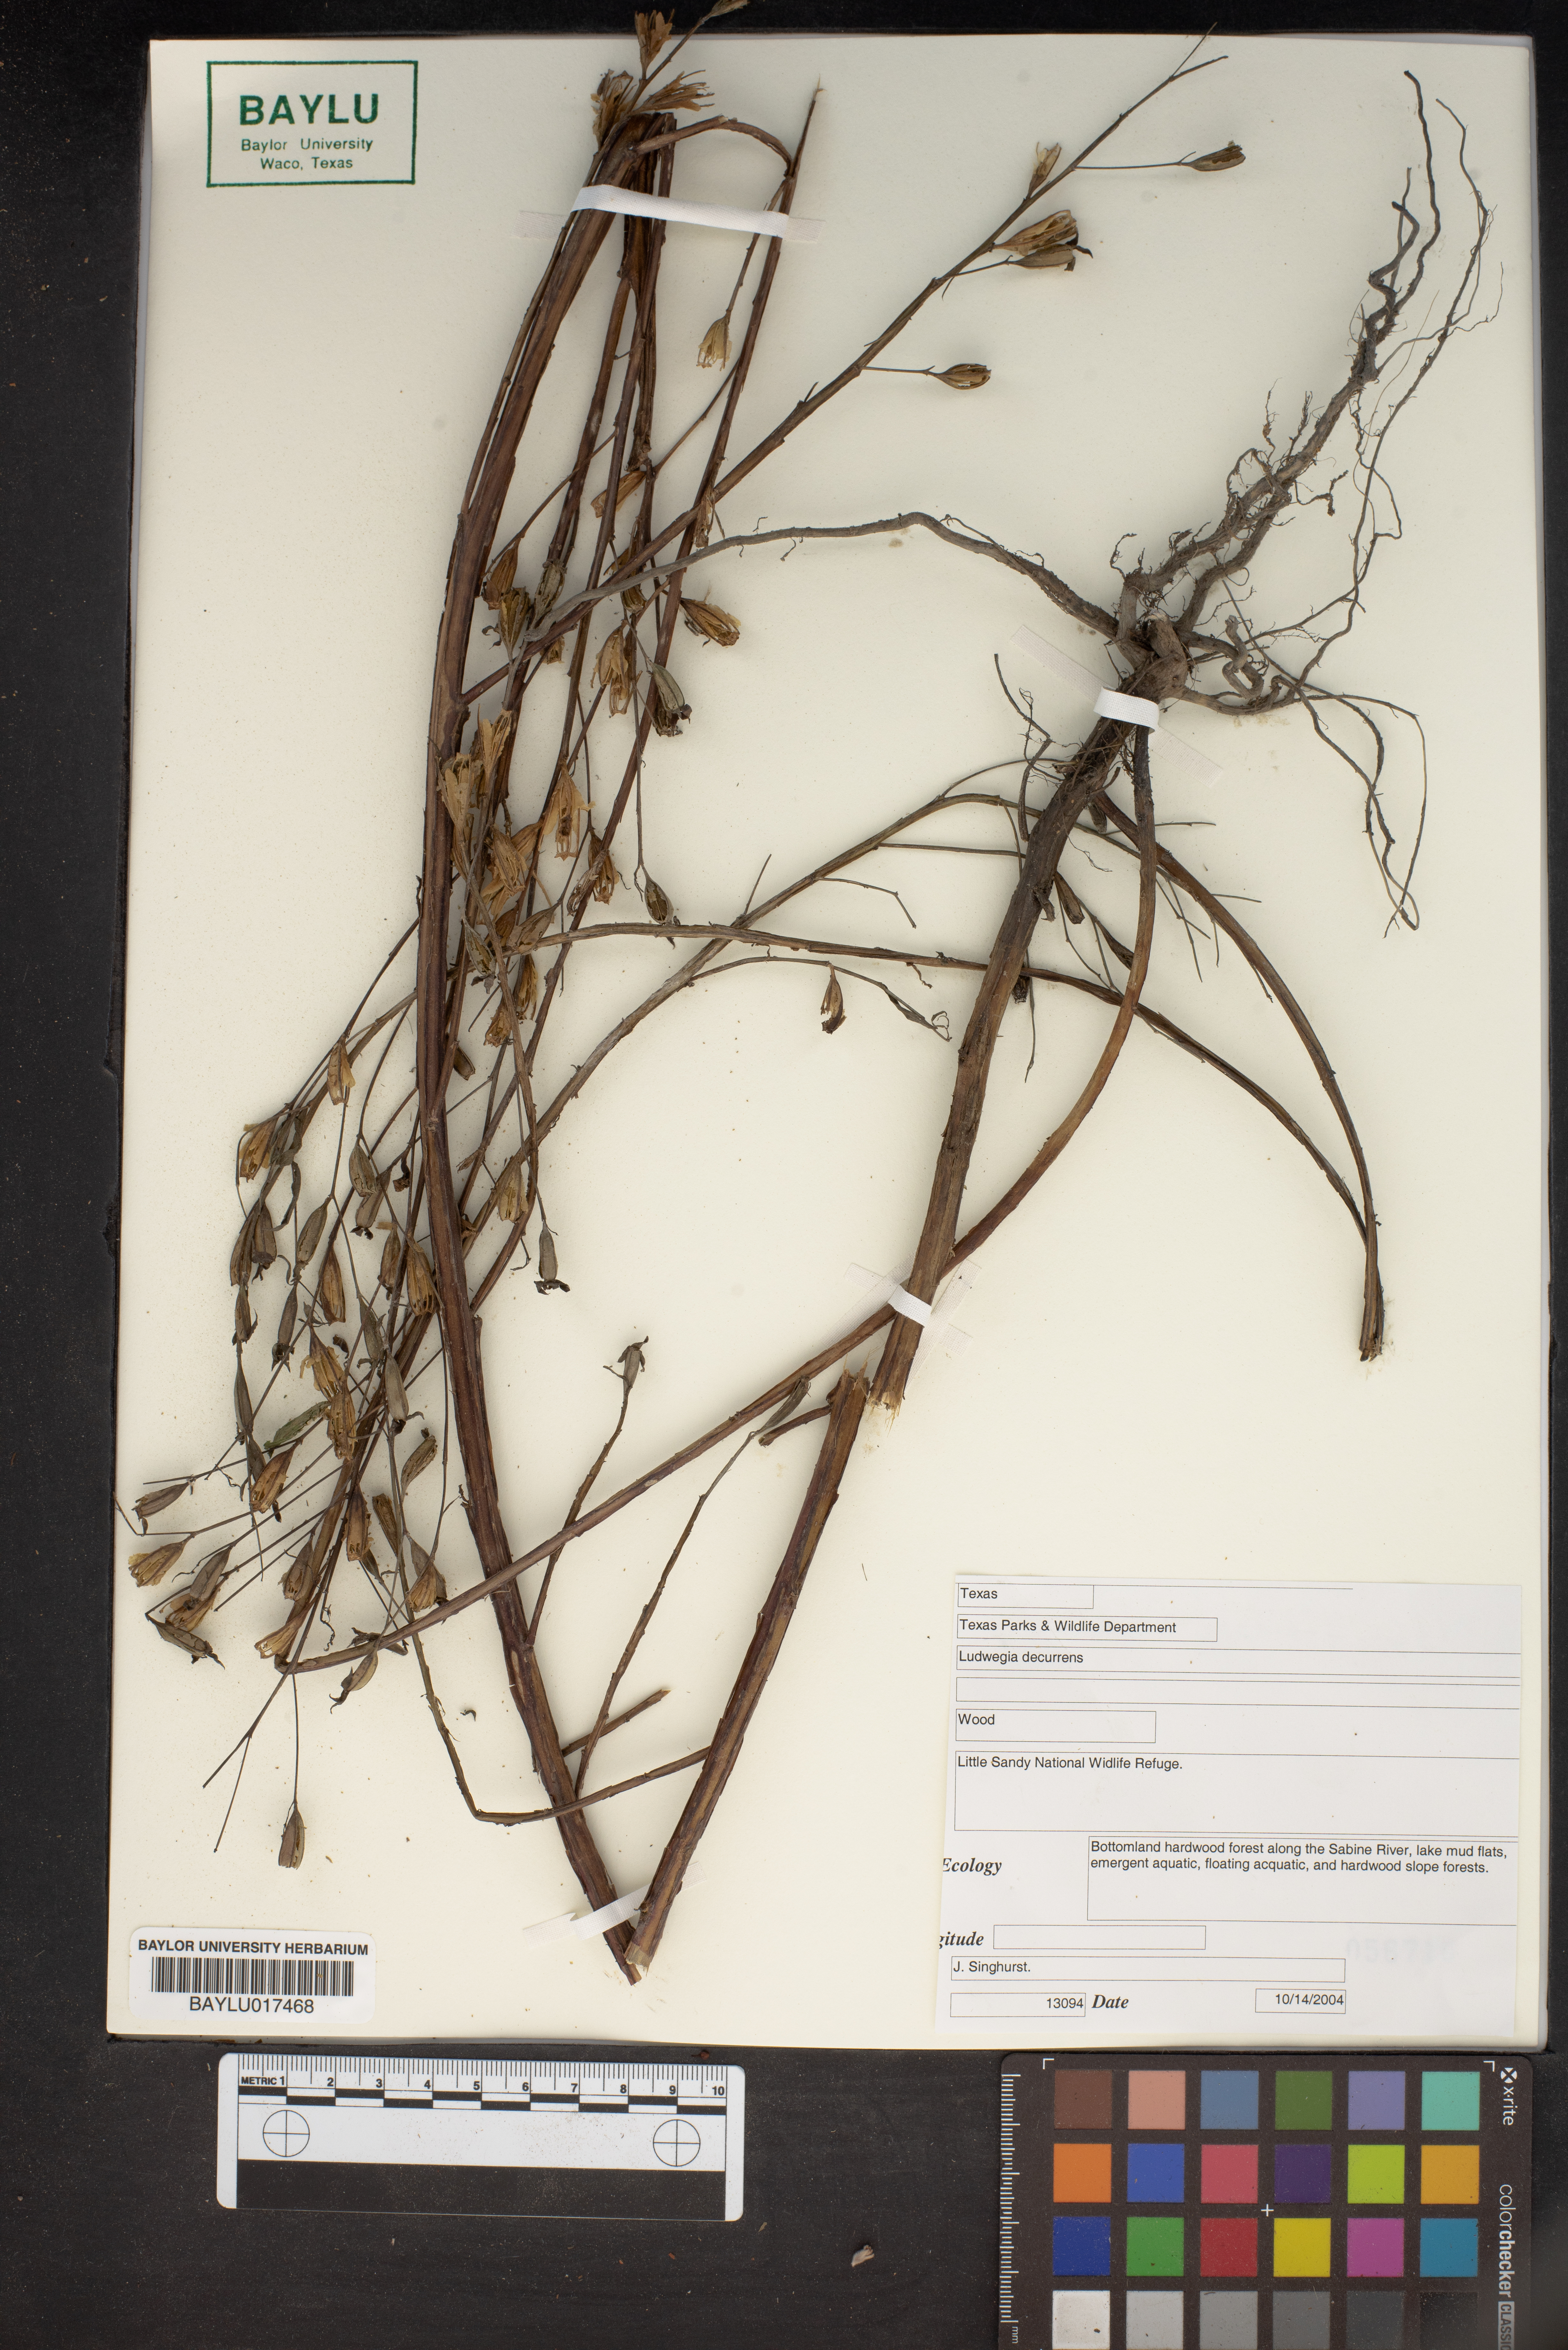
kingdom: Plantae
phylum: Tracheophyta
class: Magnoliopsida
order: Myrtales
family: Onagraceae
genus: Ludwigia
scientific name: Ludwigia decurrens
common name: Winged water-primrose
